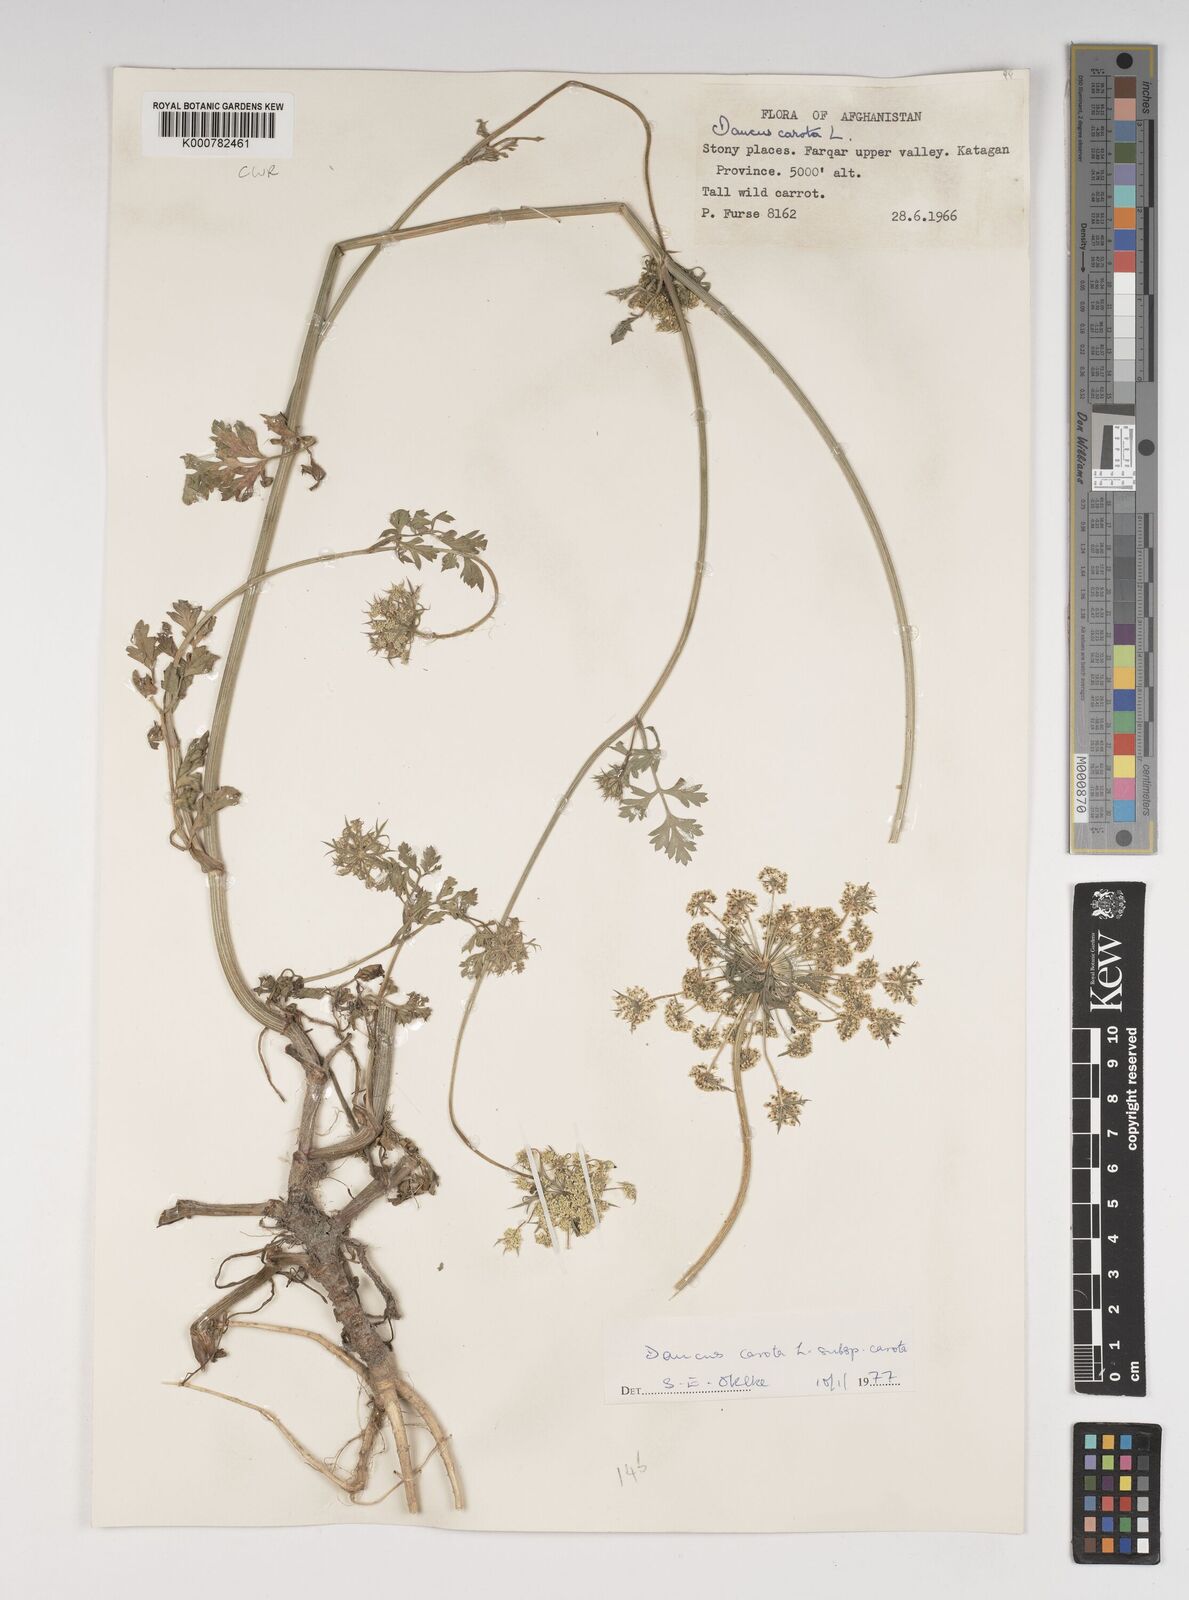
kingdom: Plantae
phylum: Tracheophyta
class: Magnoliopsida
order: Apiales
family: Apiaceae
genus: Daucus
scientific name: Daucus carota
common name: Wild carrot
